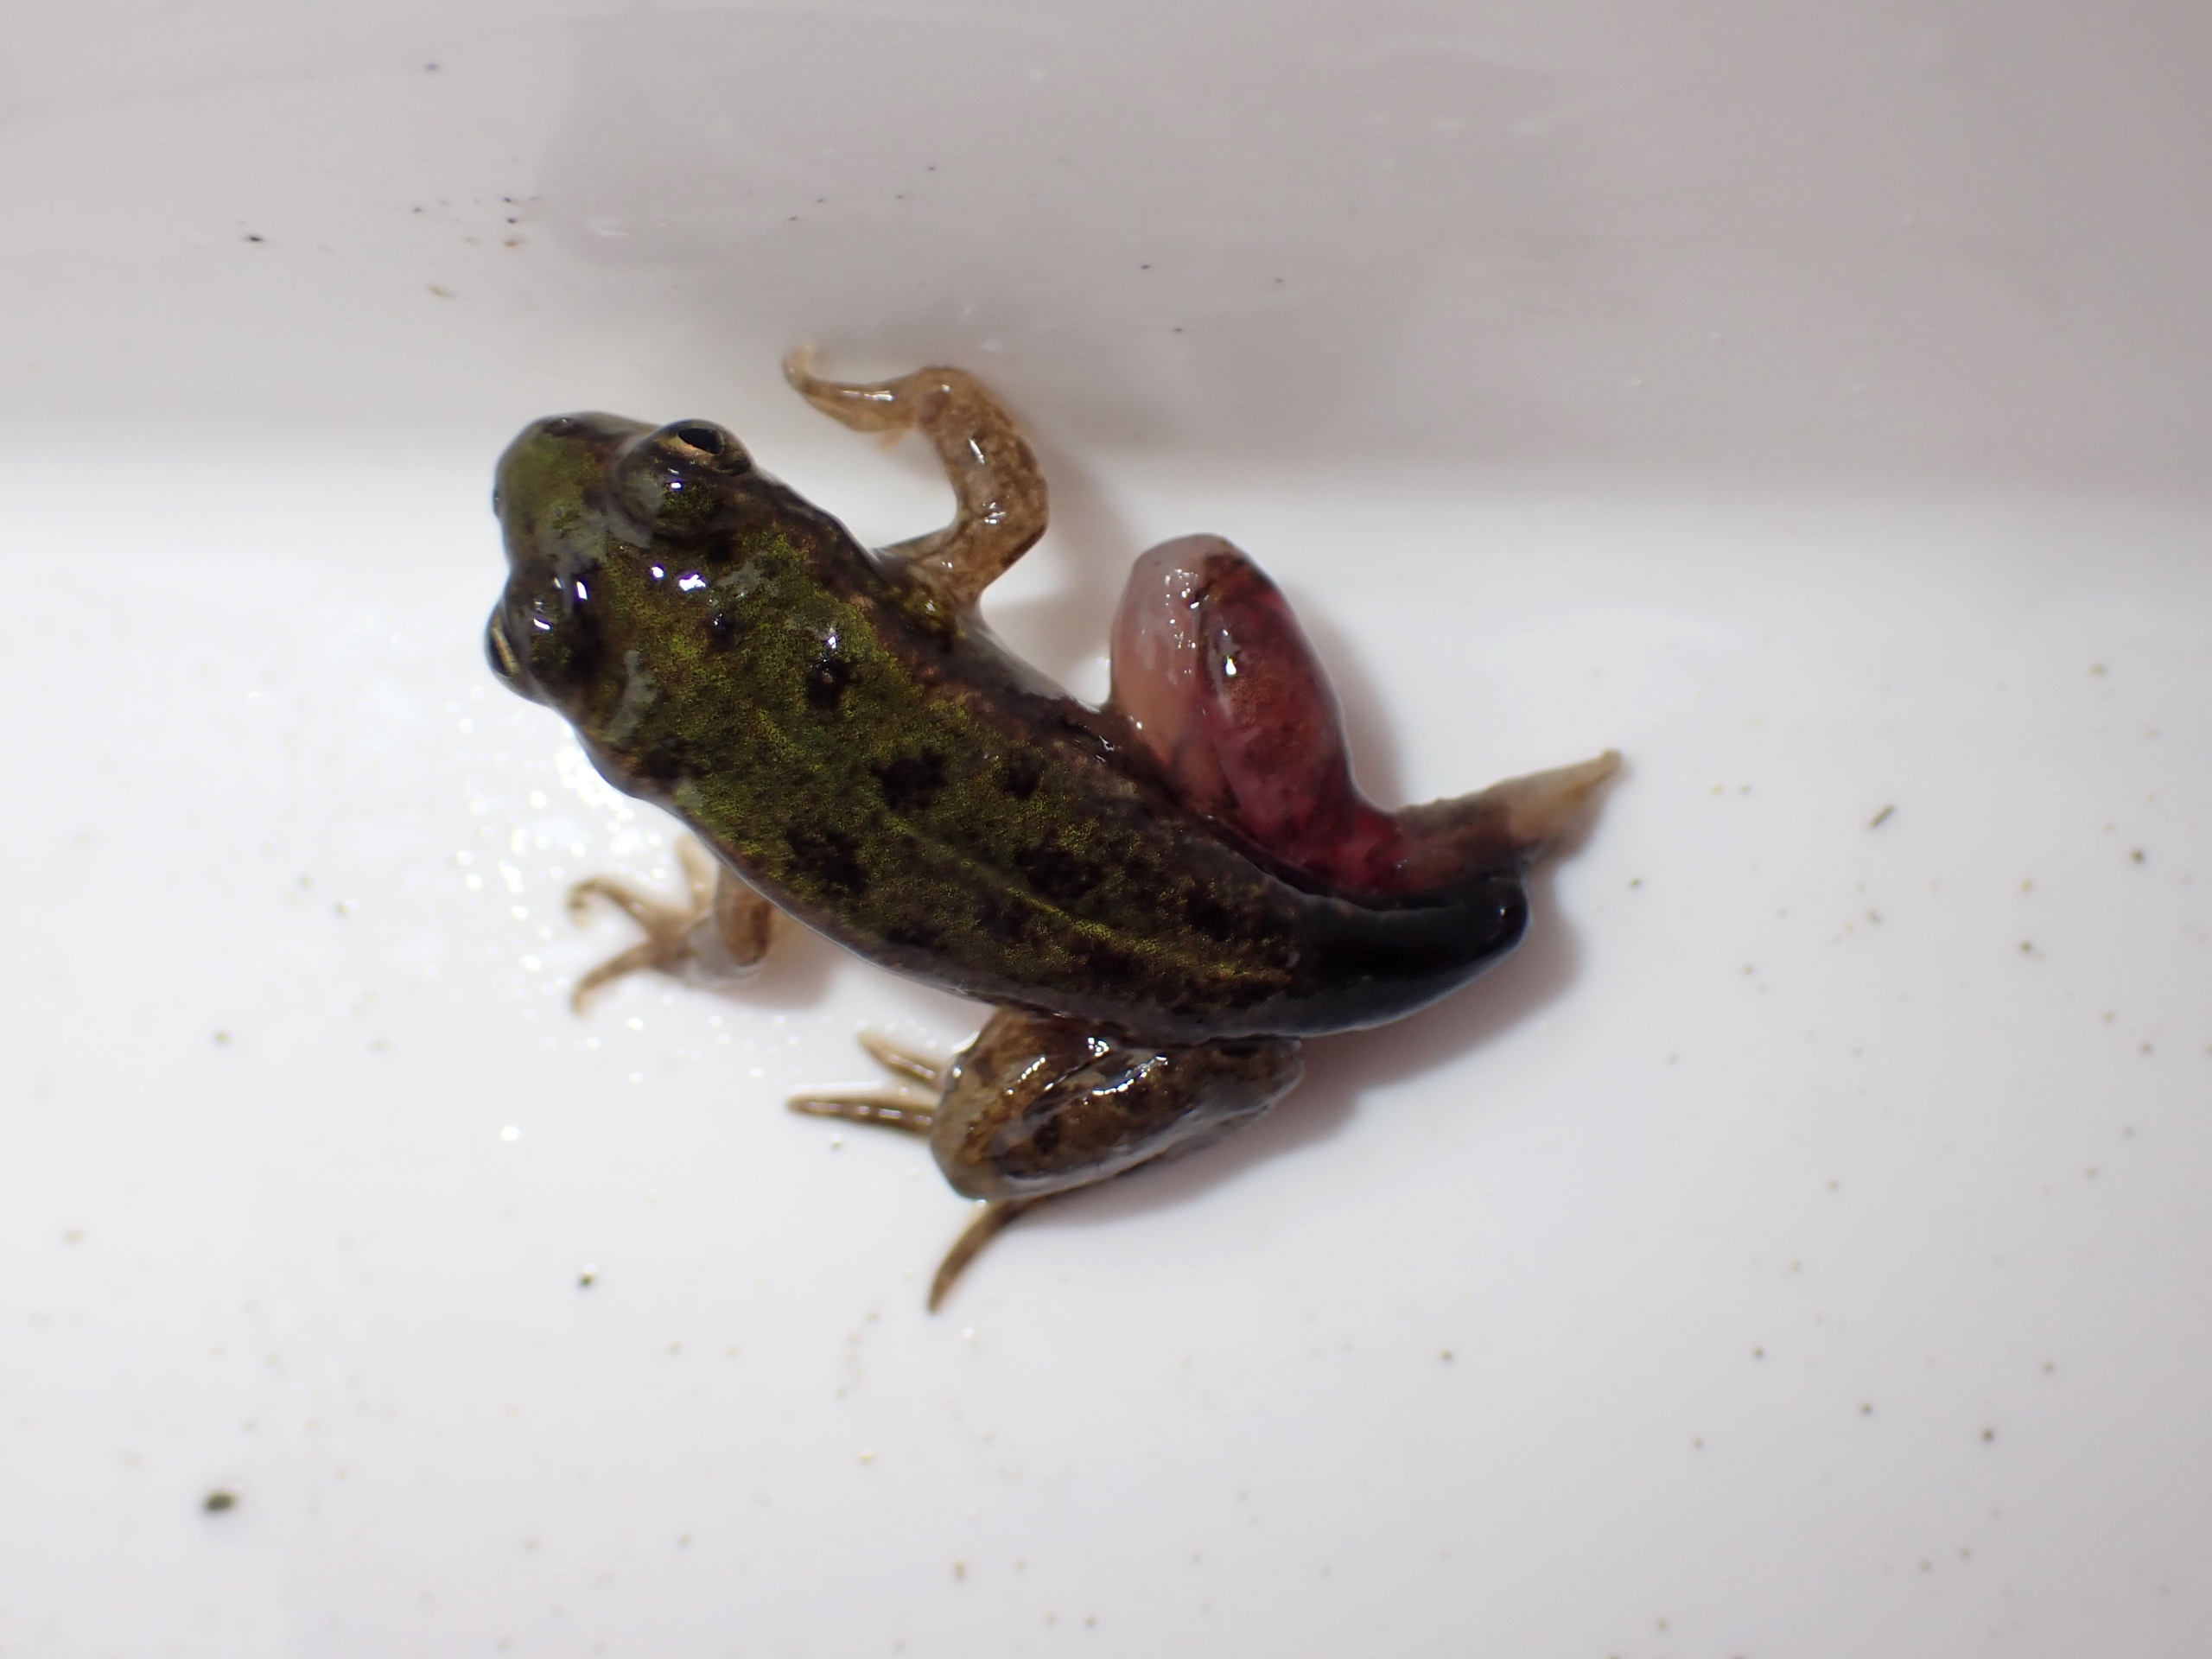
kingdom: Animalia
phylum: Chordata
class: Amphibia
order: Anura
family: Ranidae
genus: Pelophylax
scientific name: Pelophylax lessonae
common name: Grøn frø
